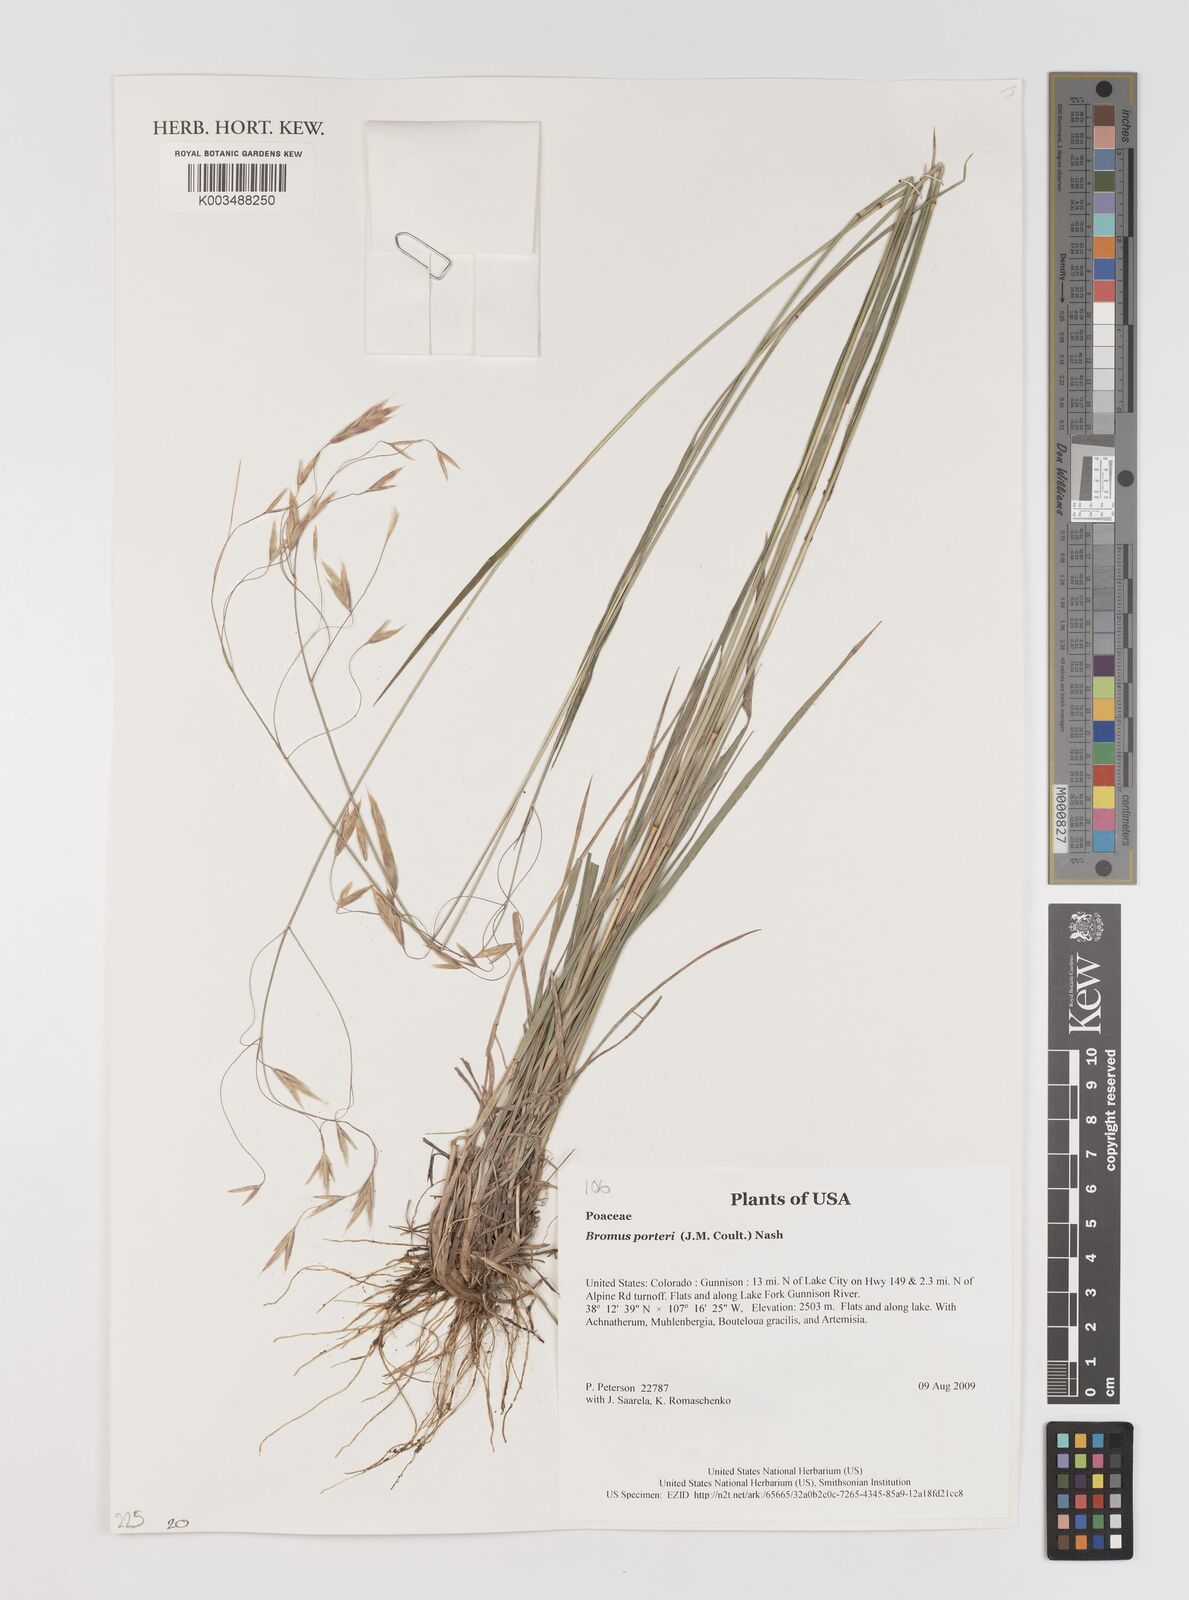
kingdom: Plantae
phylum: Tracheophyta
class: Liliopsida
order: Poales
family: Poaceae
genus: Bromus
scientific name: Bromus porteri
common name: Nodding brome
